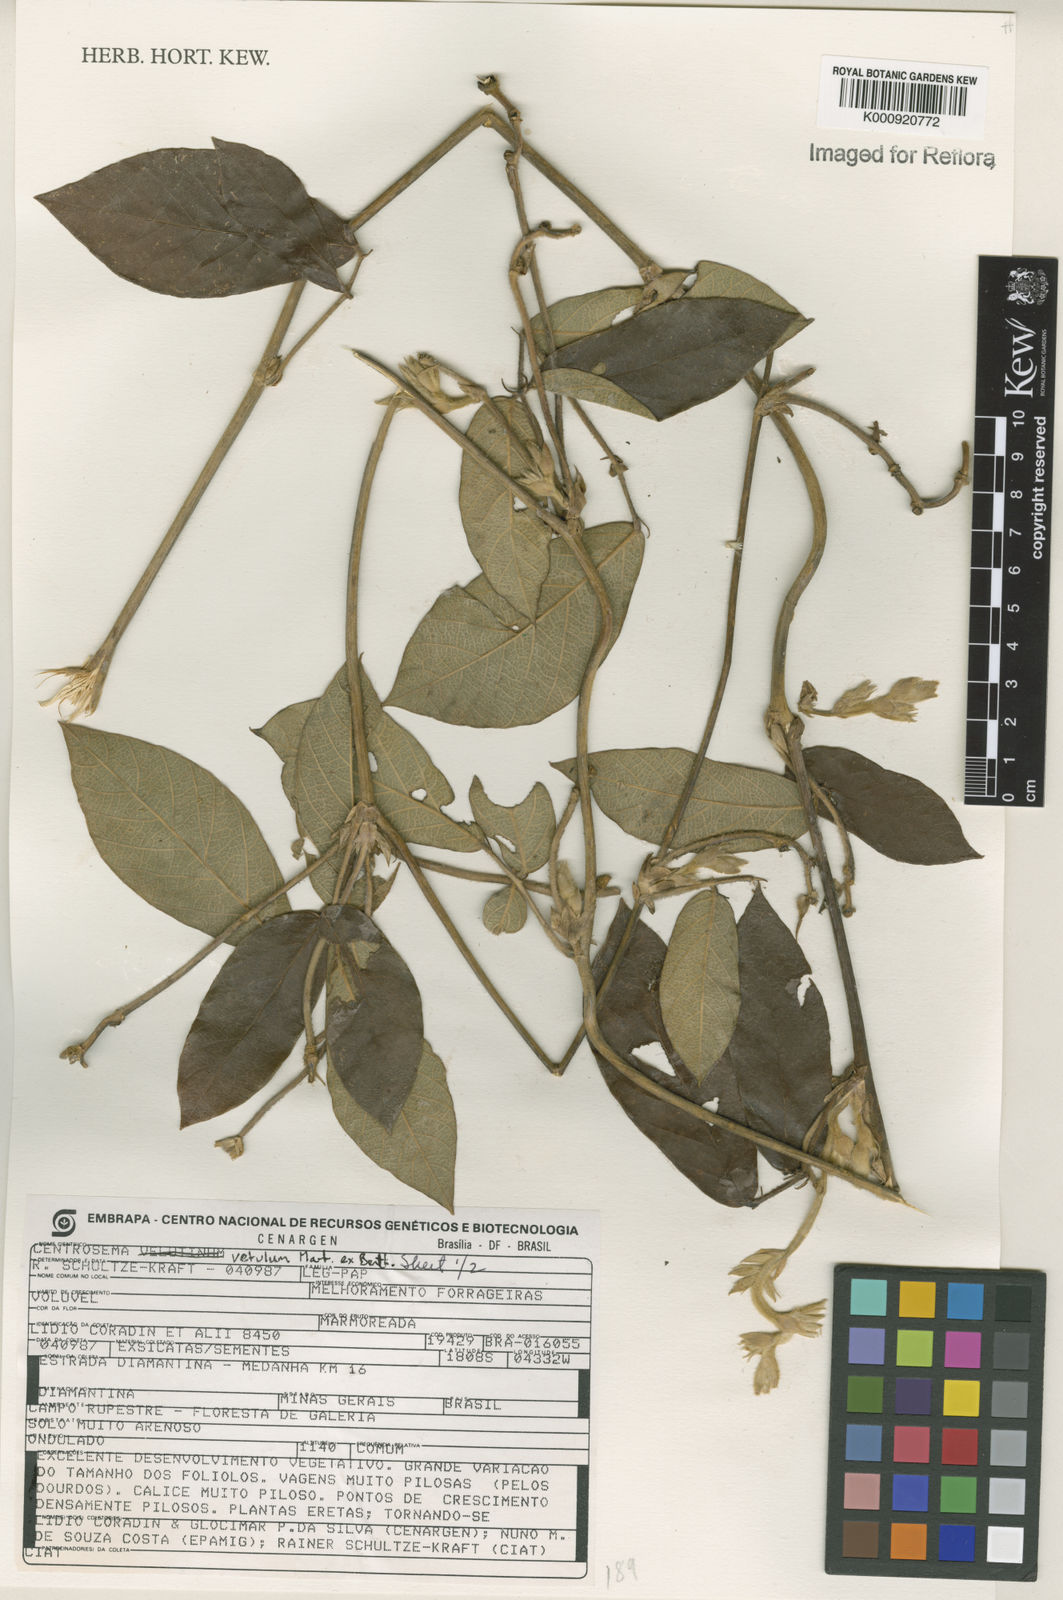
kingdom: Plantae
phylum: Tracheophyta
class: Magnoliopsida
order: Fabales
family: Fabaceae
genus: Centrosema
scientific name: Centrosema vetulum
